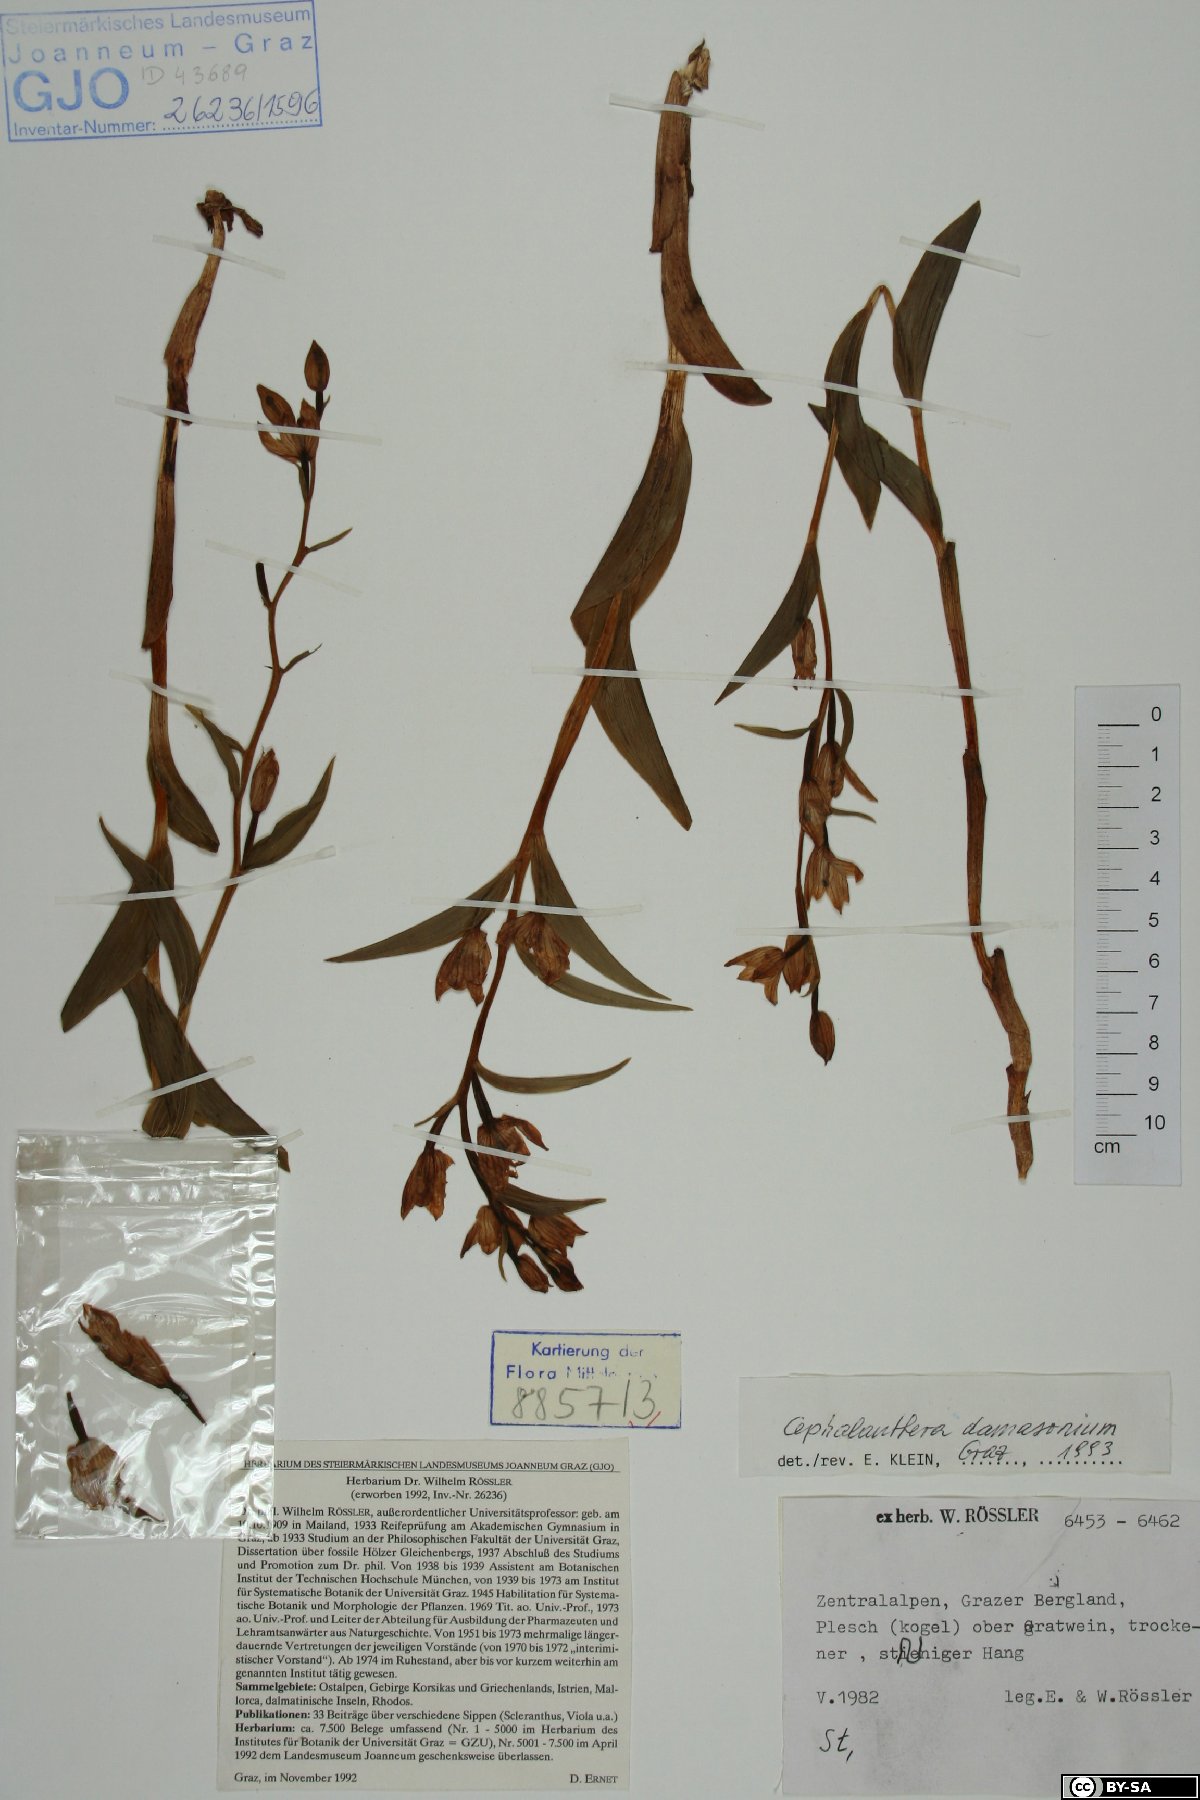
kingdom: Plantae
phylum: Tracheophyta
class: Liliopsida
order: Asparagales
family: Orchidaceae
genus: Cephalanthera
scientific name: Cephalanthera damasonium
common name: White helleborine
